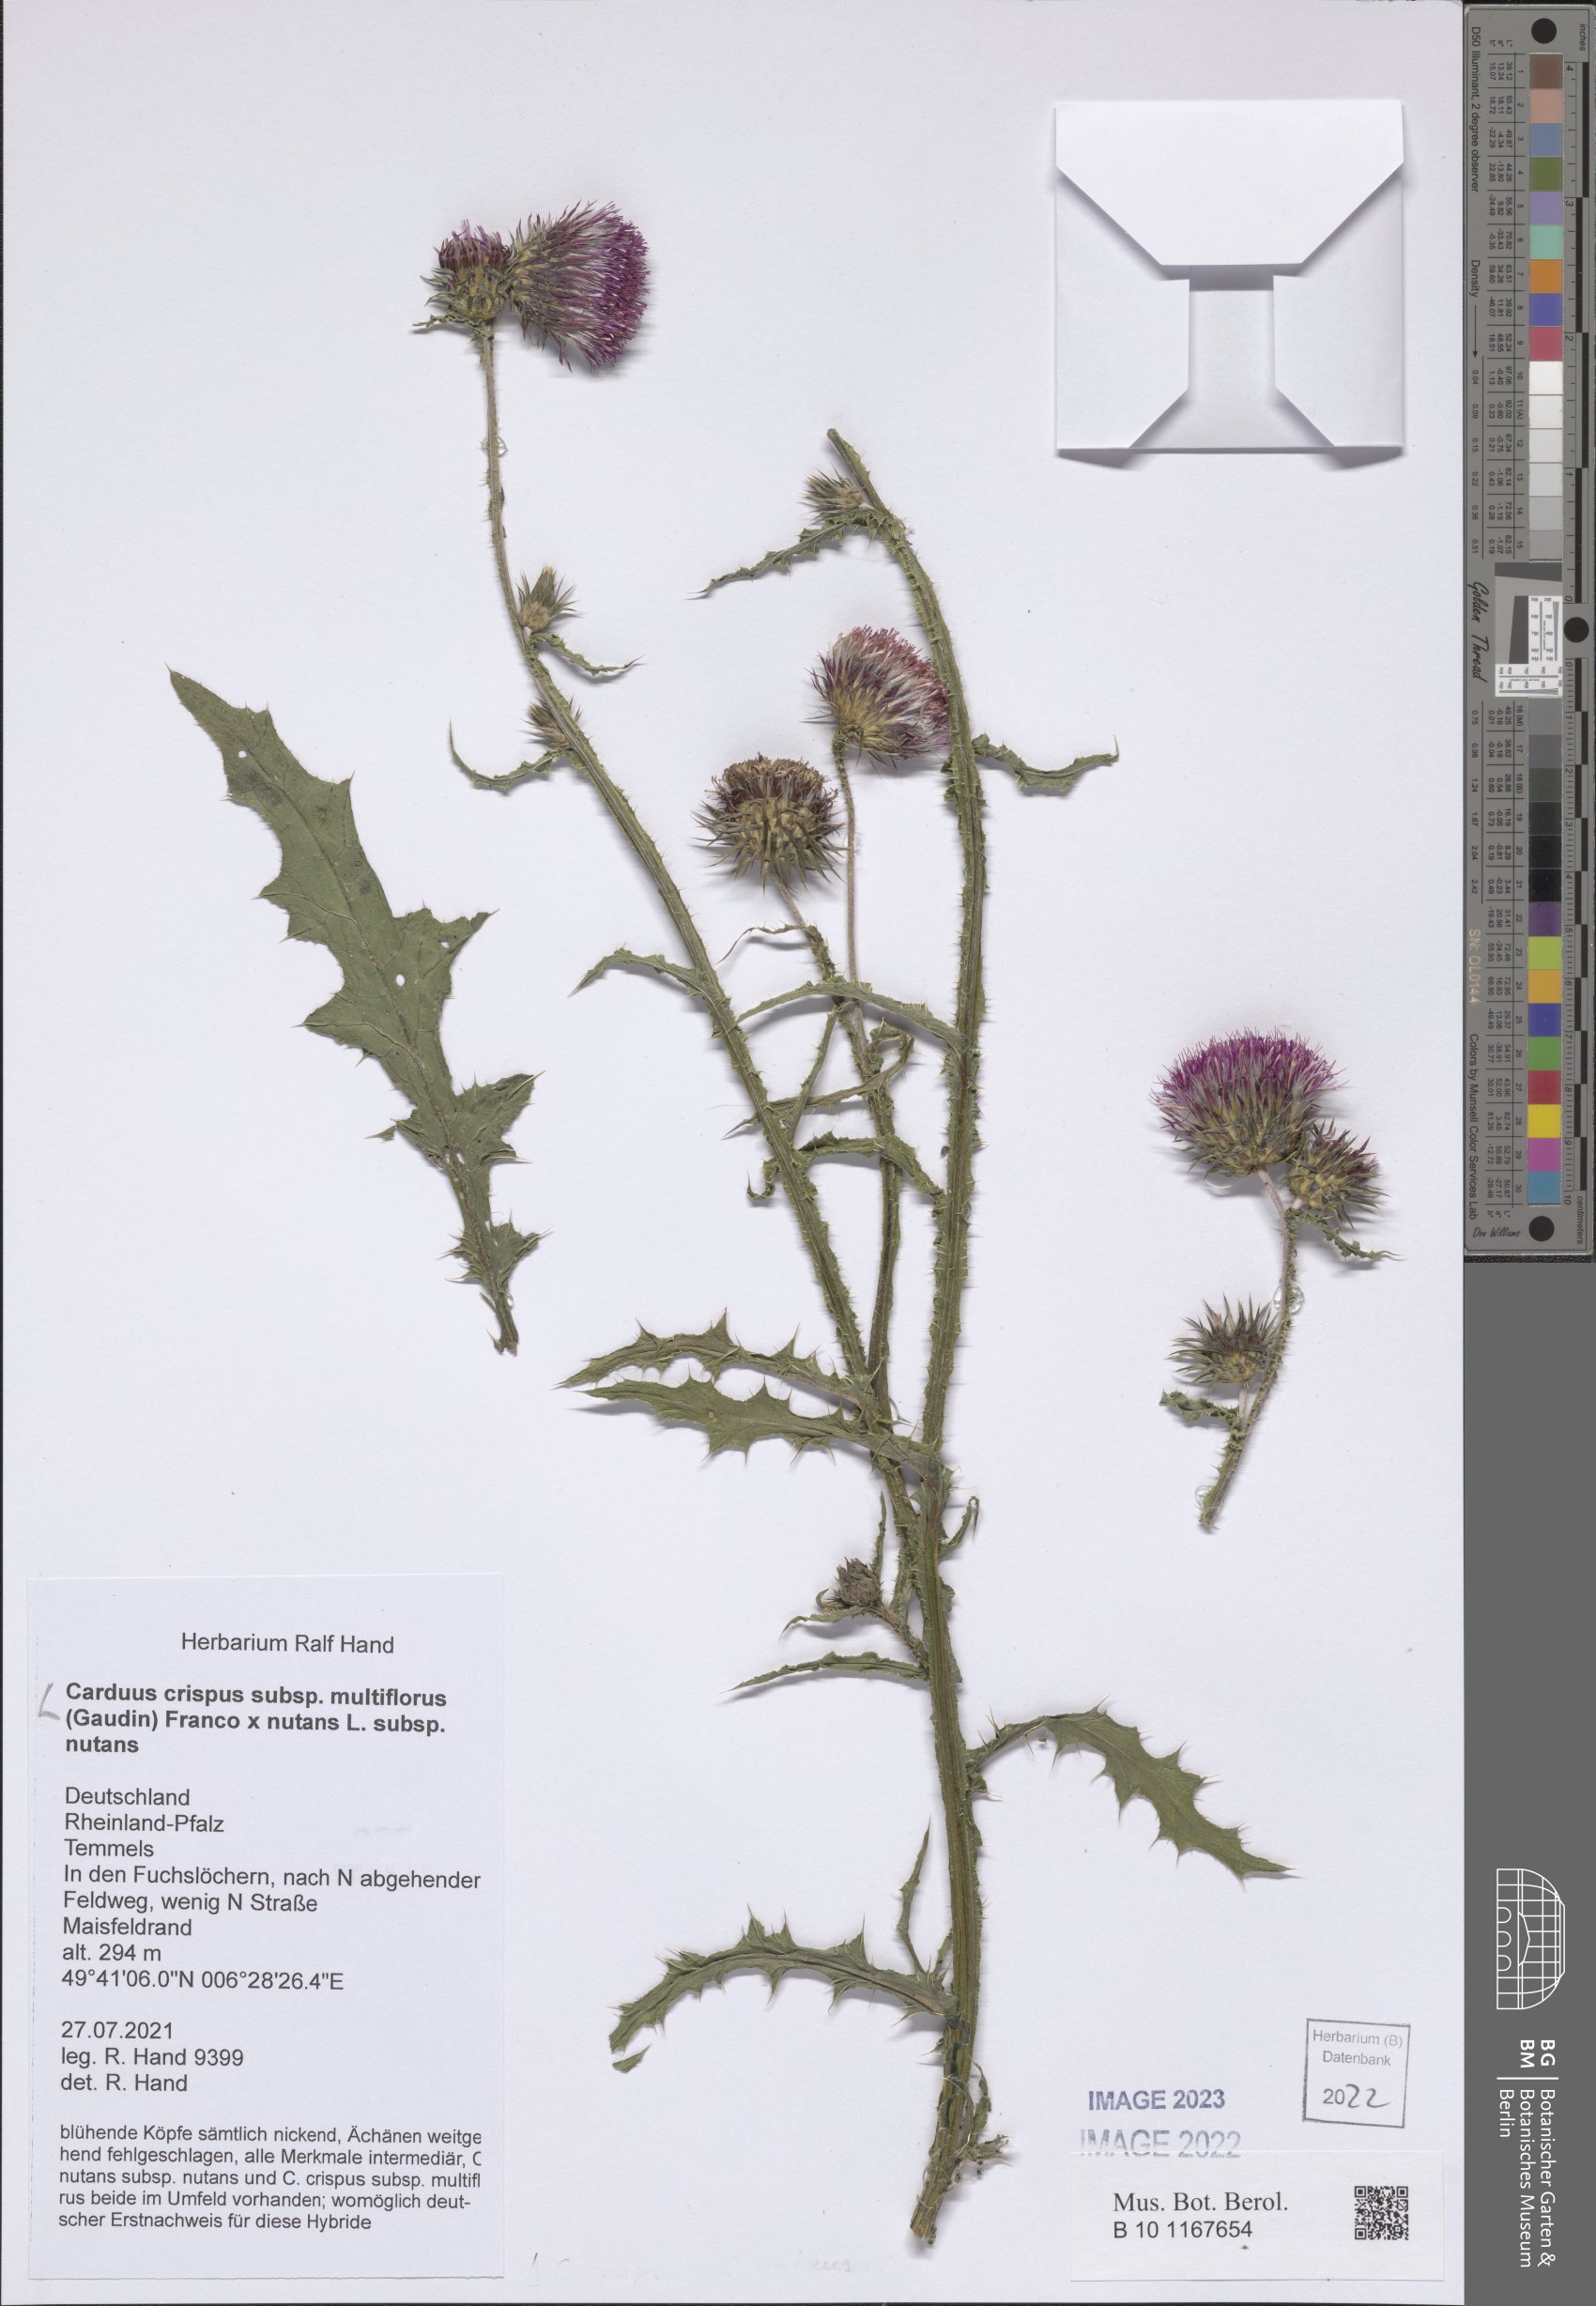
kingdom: Plantae
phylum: Tracheophyta
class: Magnoliopsida
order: Asterales
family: Asteraceae
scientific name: Asteraceae
